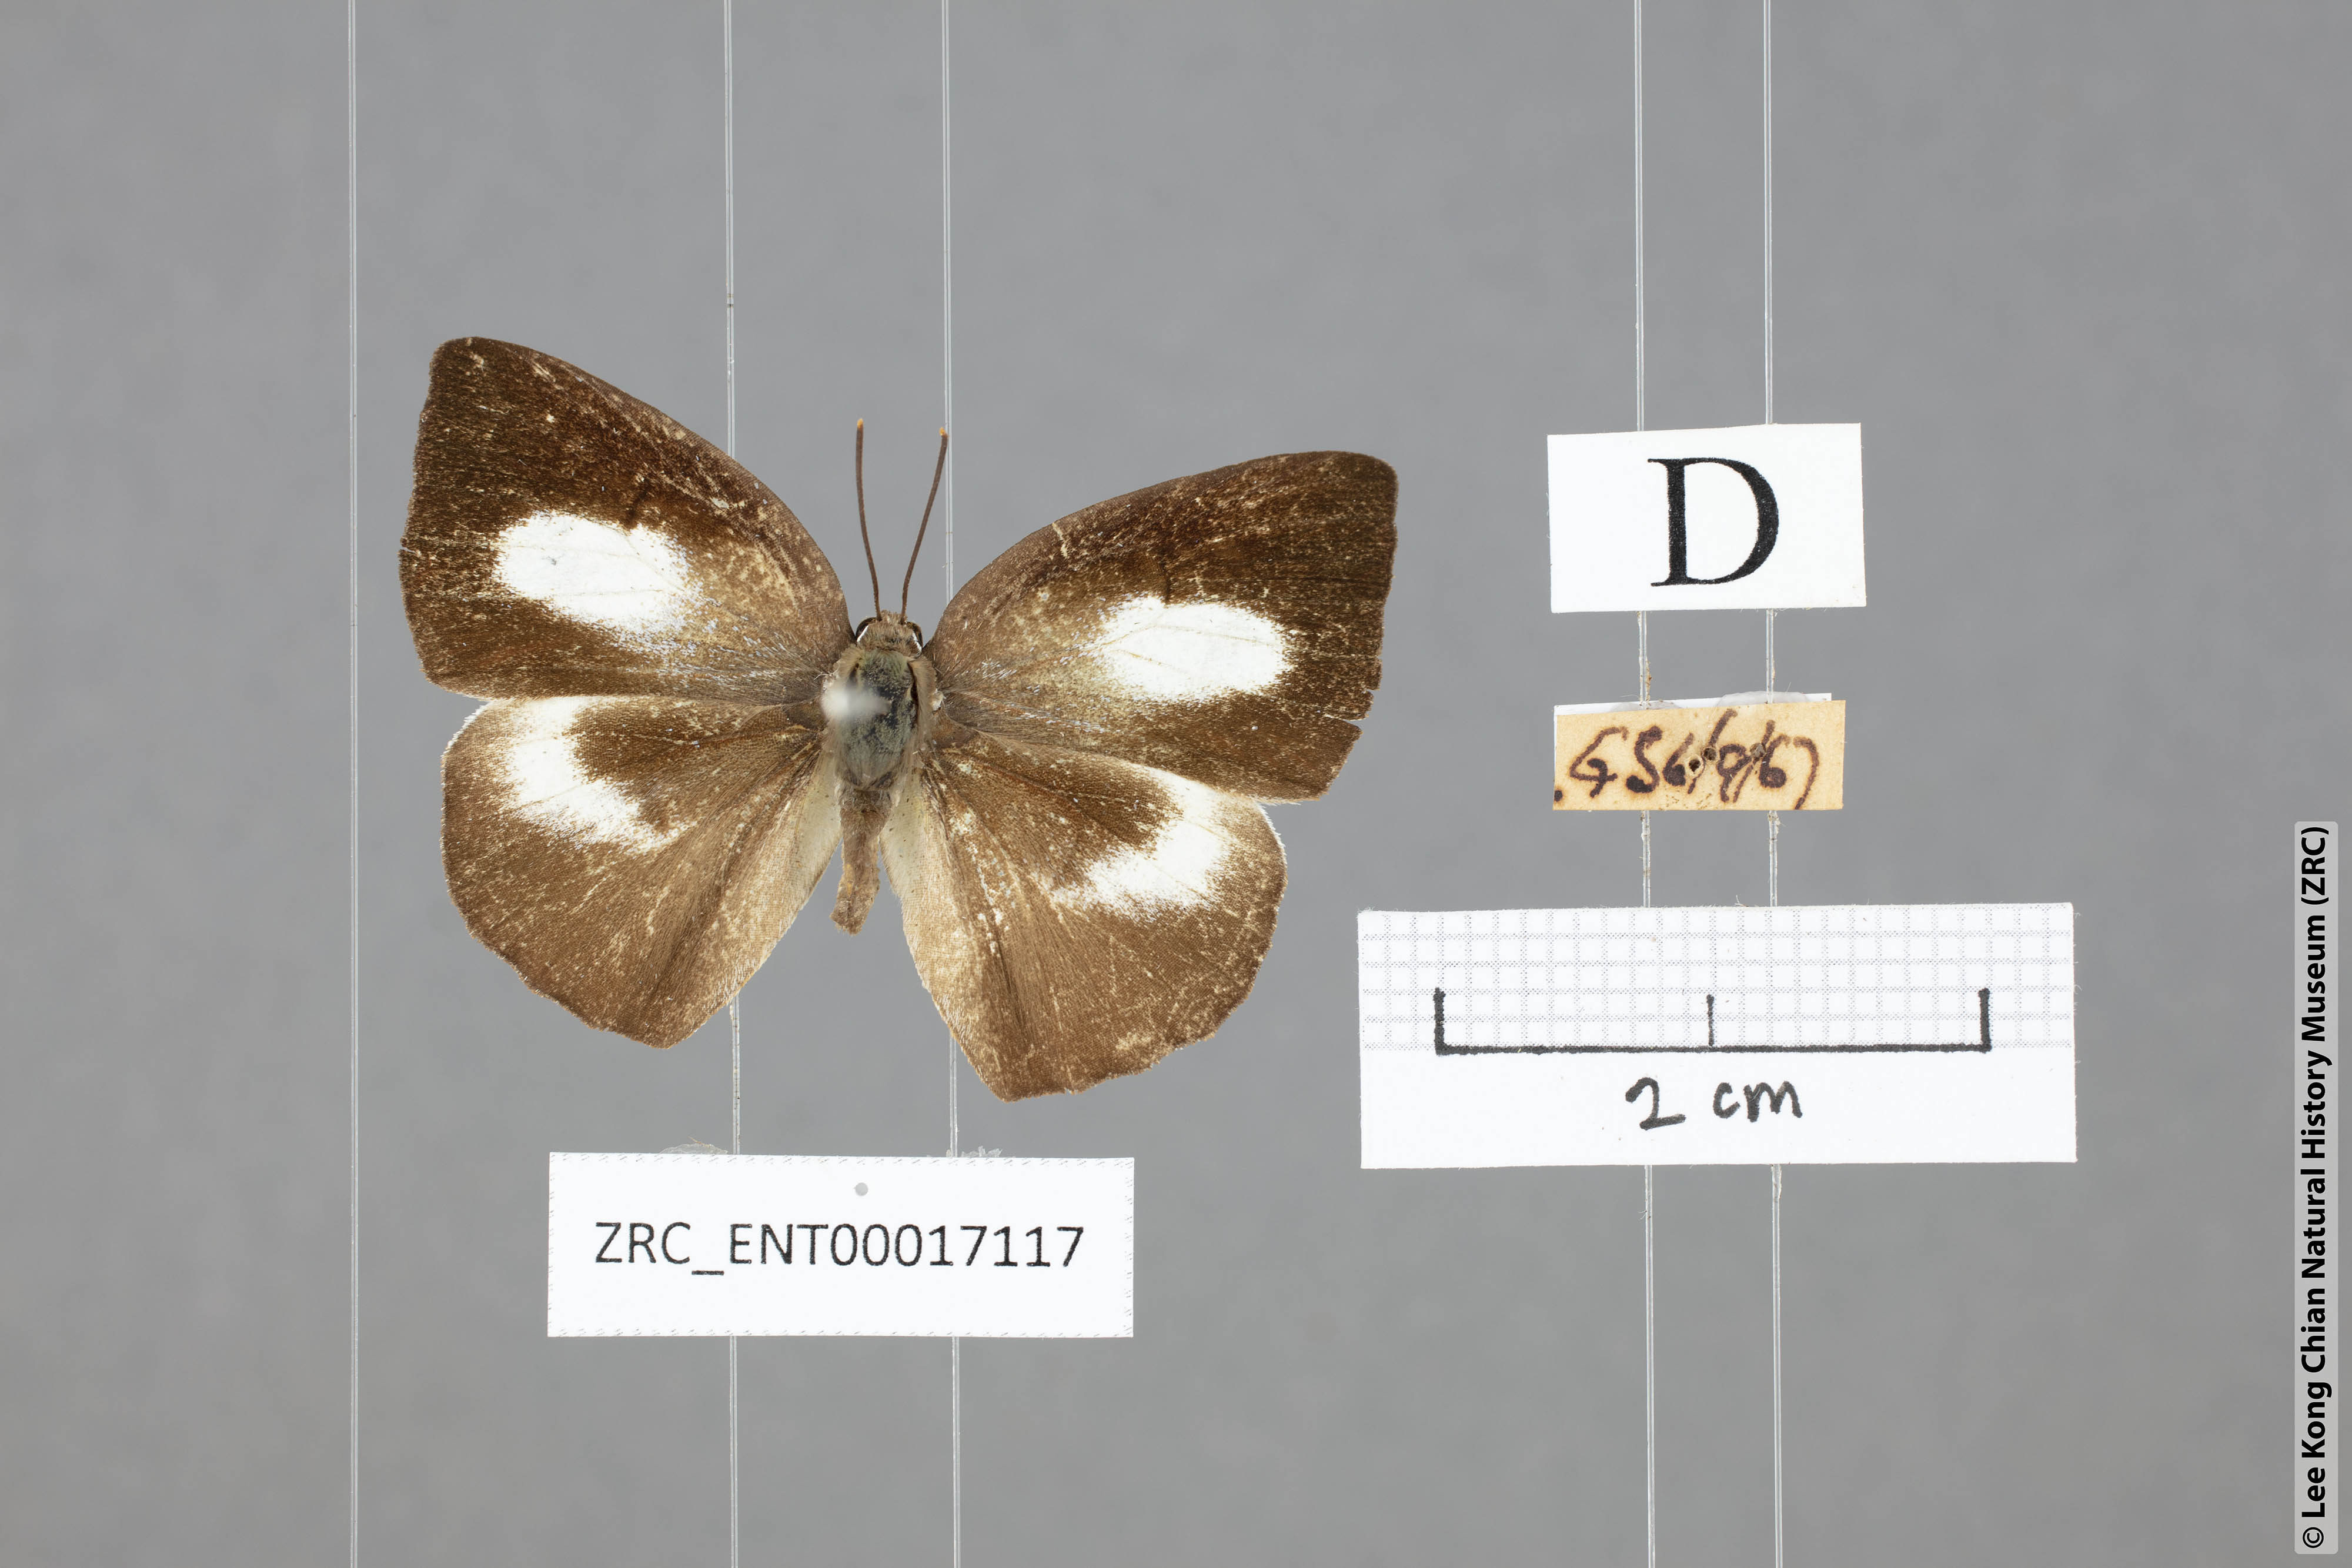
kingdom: Animalia
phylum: Arthropoda
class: Insecta
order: Lepidoptera
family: Lycaenidae
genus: Curetis
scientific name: Curetis bulis
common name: Bright sunbeam
